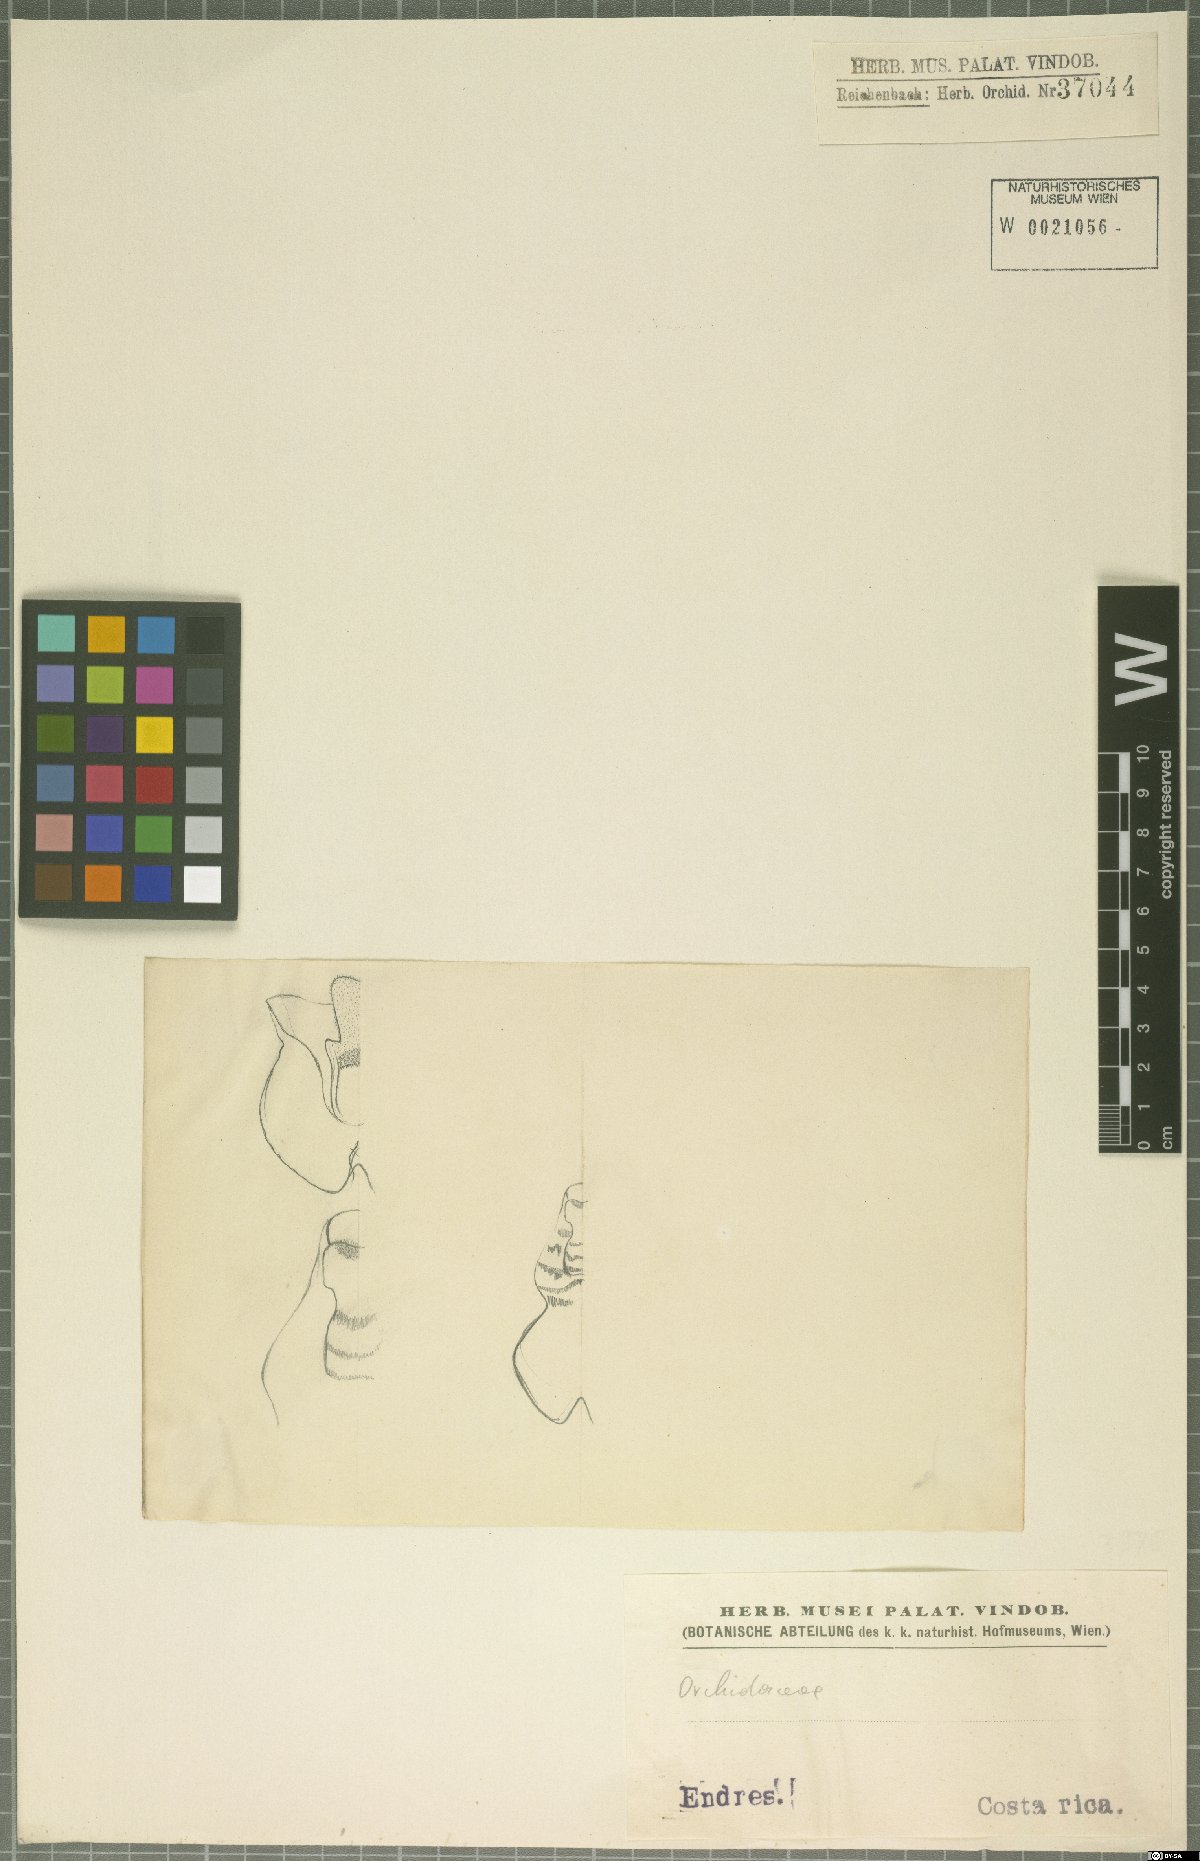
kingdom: Plantae
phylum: Tracheophyta
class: Liliopsida
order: Asparagales
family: Orchidaceae
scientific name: Orchidaceae
